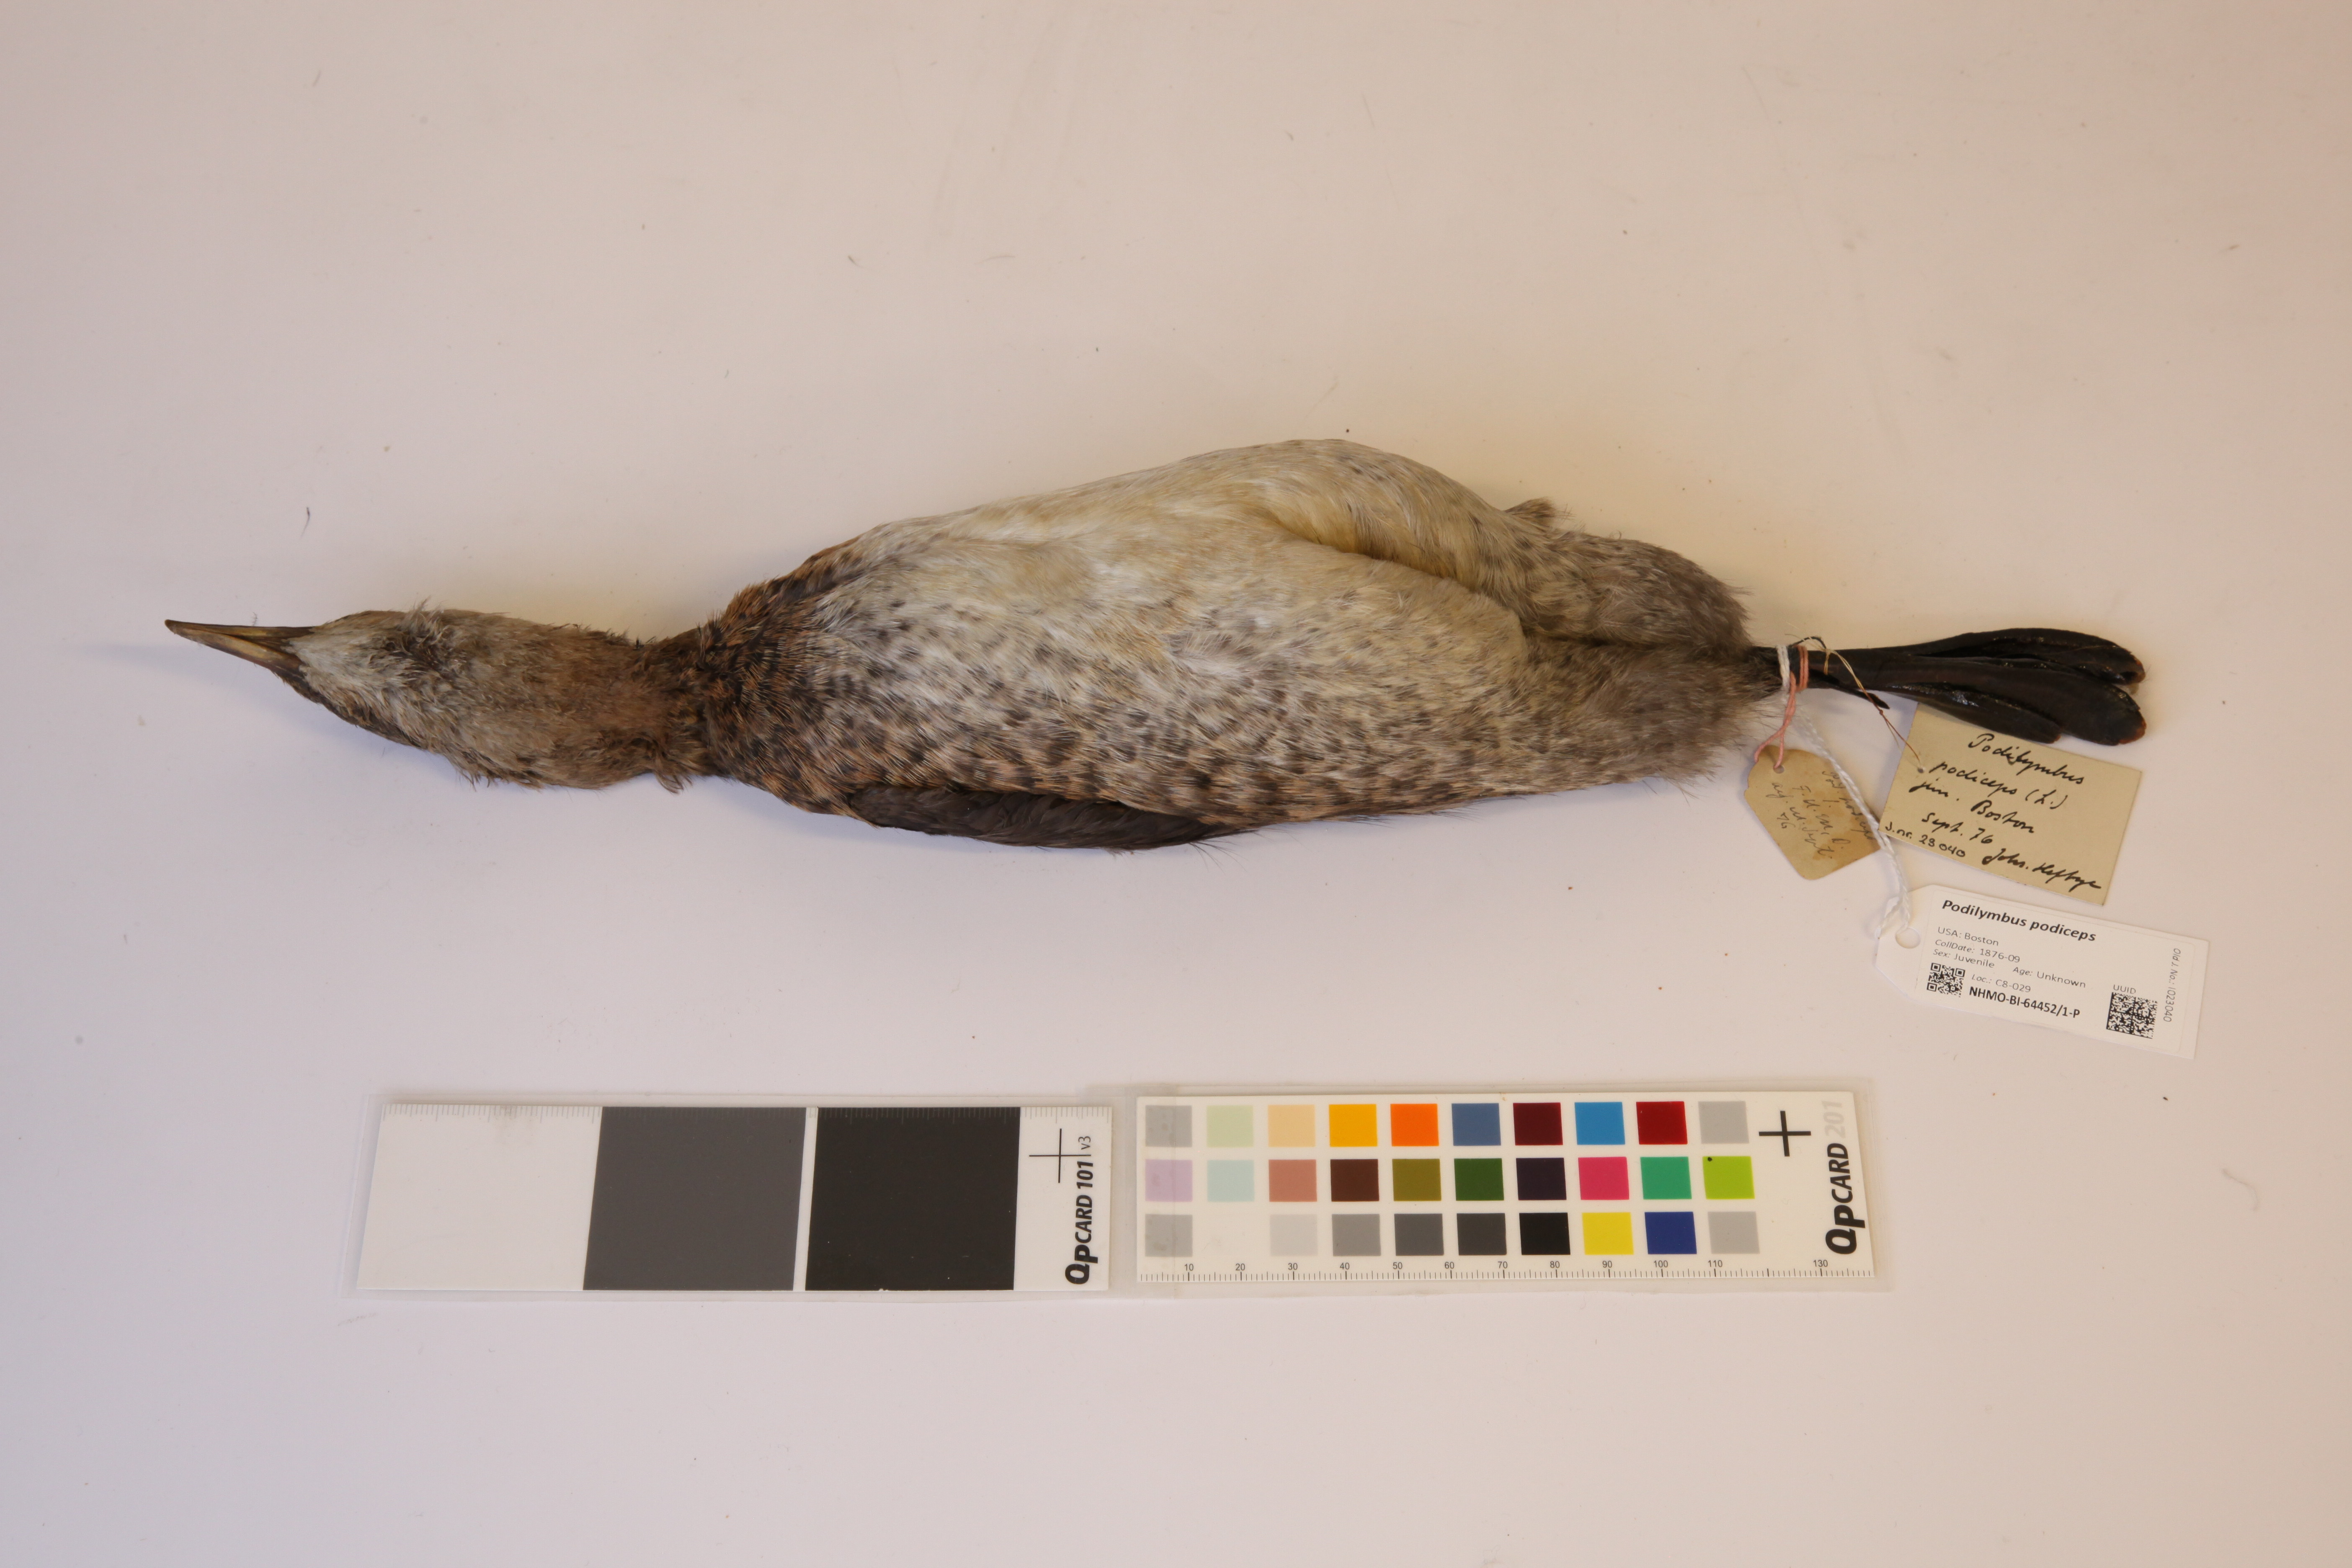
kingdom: Animalia
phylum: Chordata
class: Aves
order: Podicipediformes
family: Podicipedidae
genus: Podilymbus
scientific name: Podilymbus podiceps
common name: Pied-billed grebe
